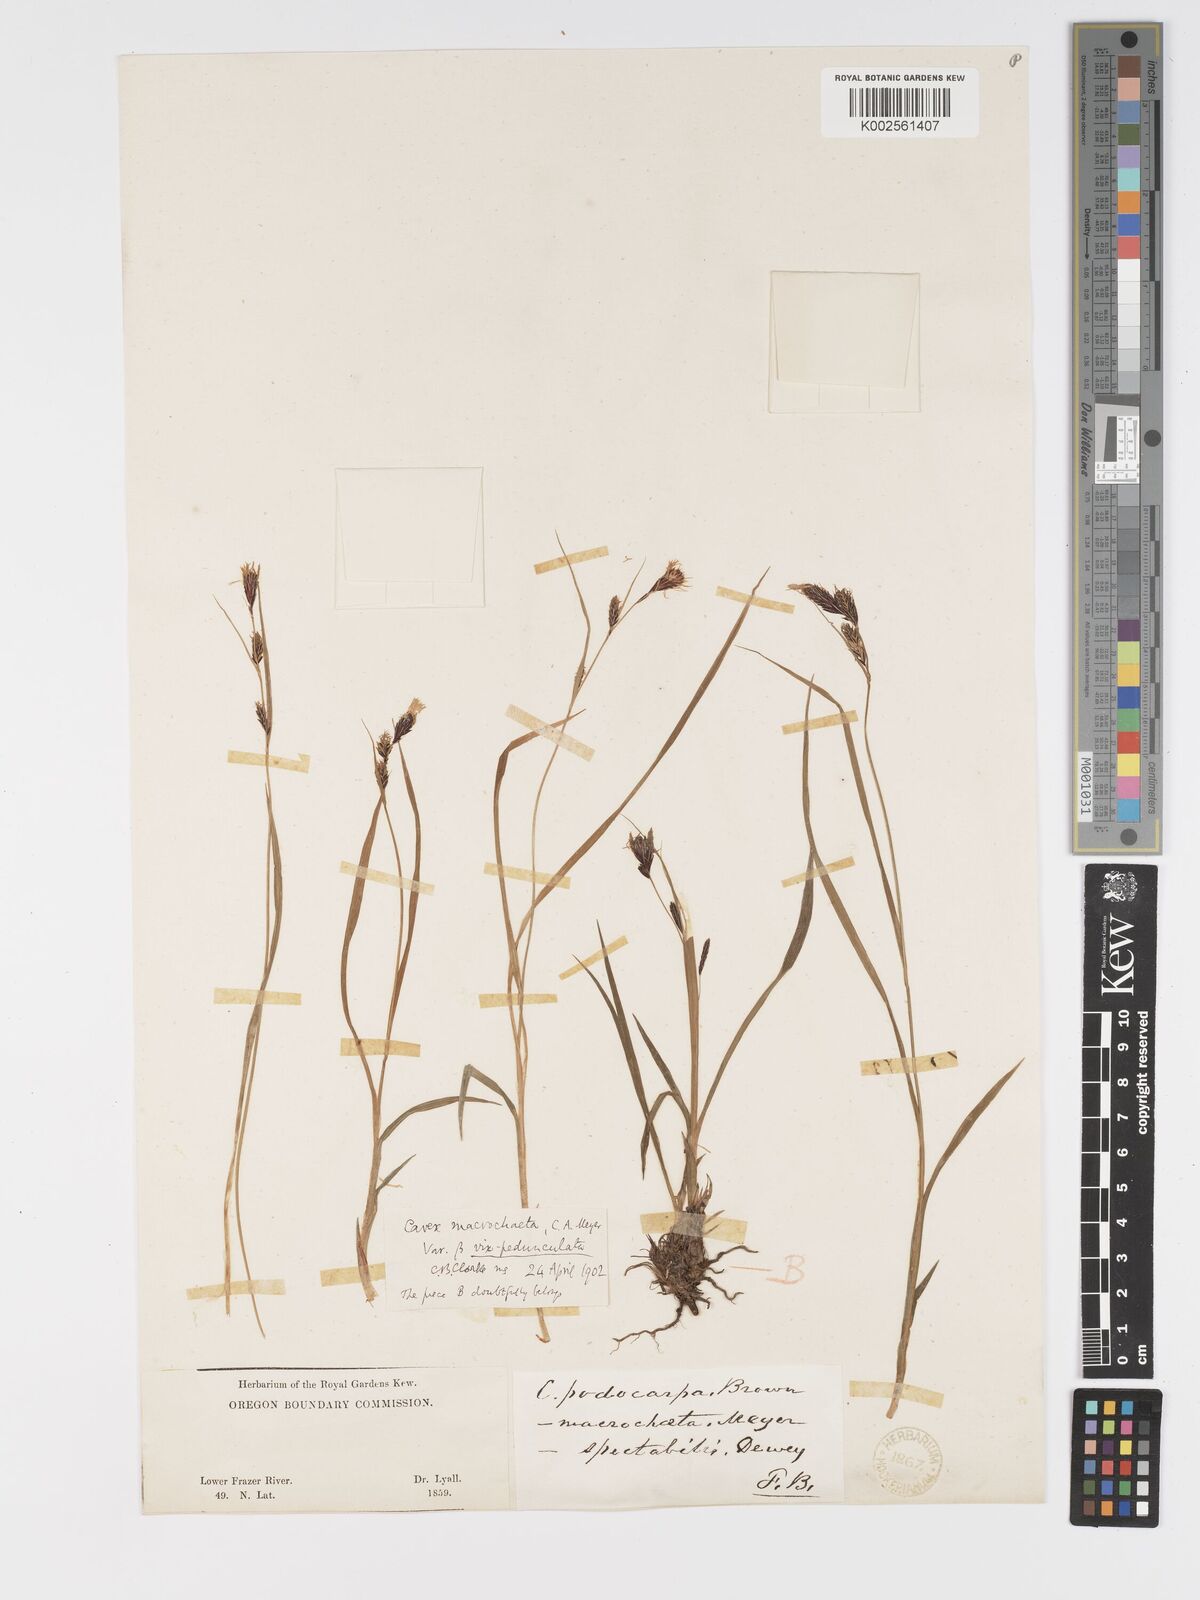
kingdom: Plantae
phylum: Tracheophyta
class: Liliopsida
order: Poales
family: Cyperaceae
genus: Carex
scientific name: Carex macrochaeta
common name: Alaska large awn sedge
